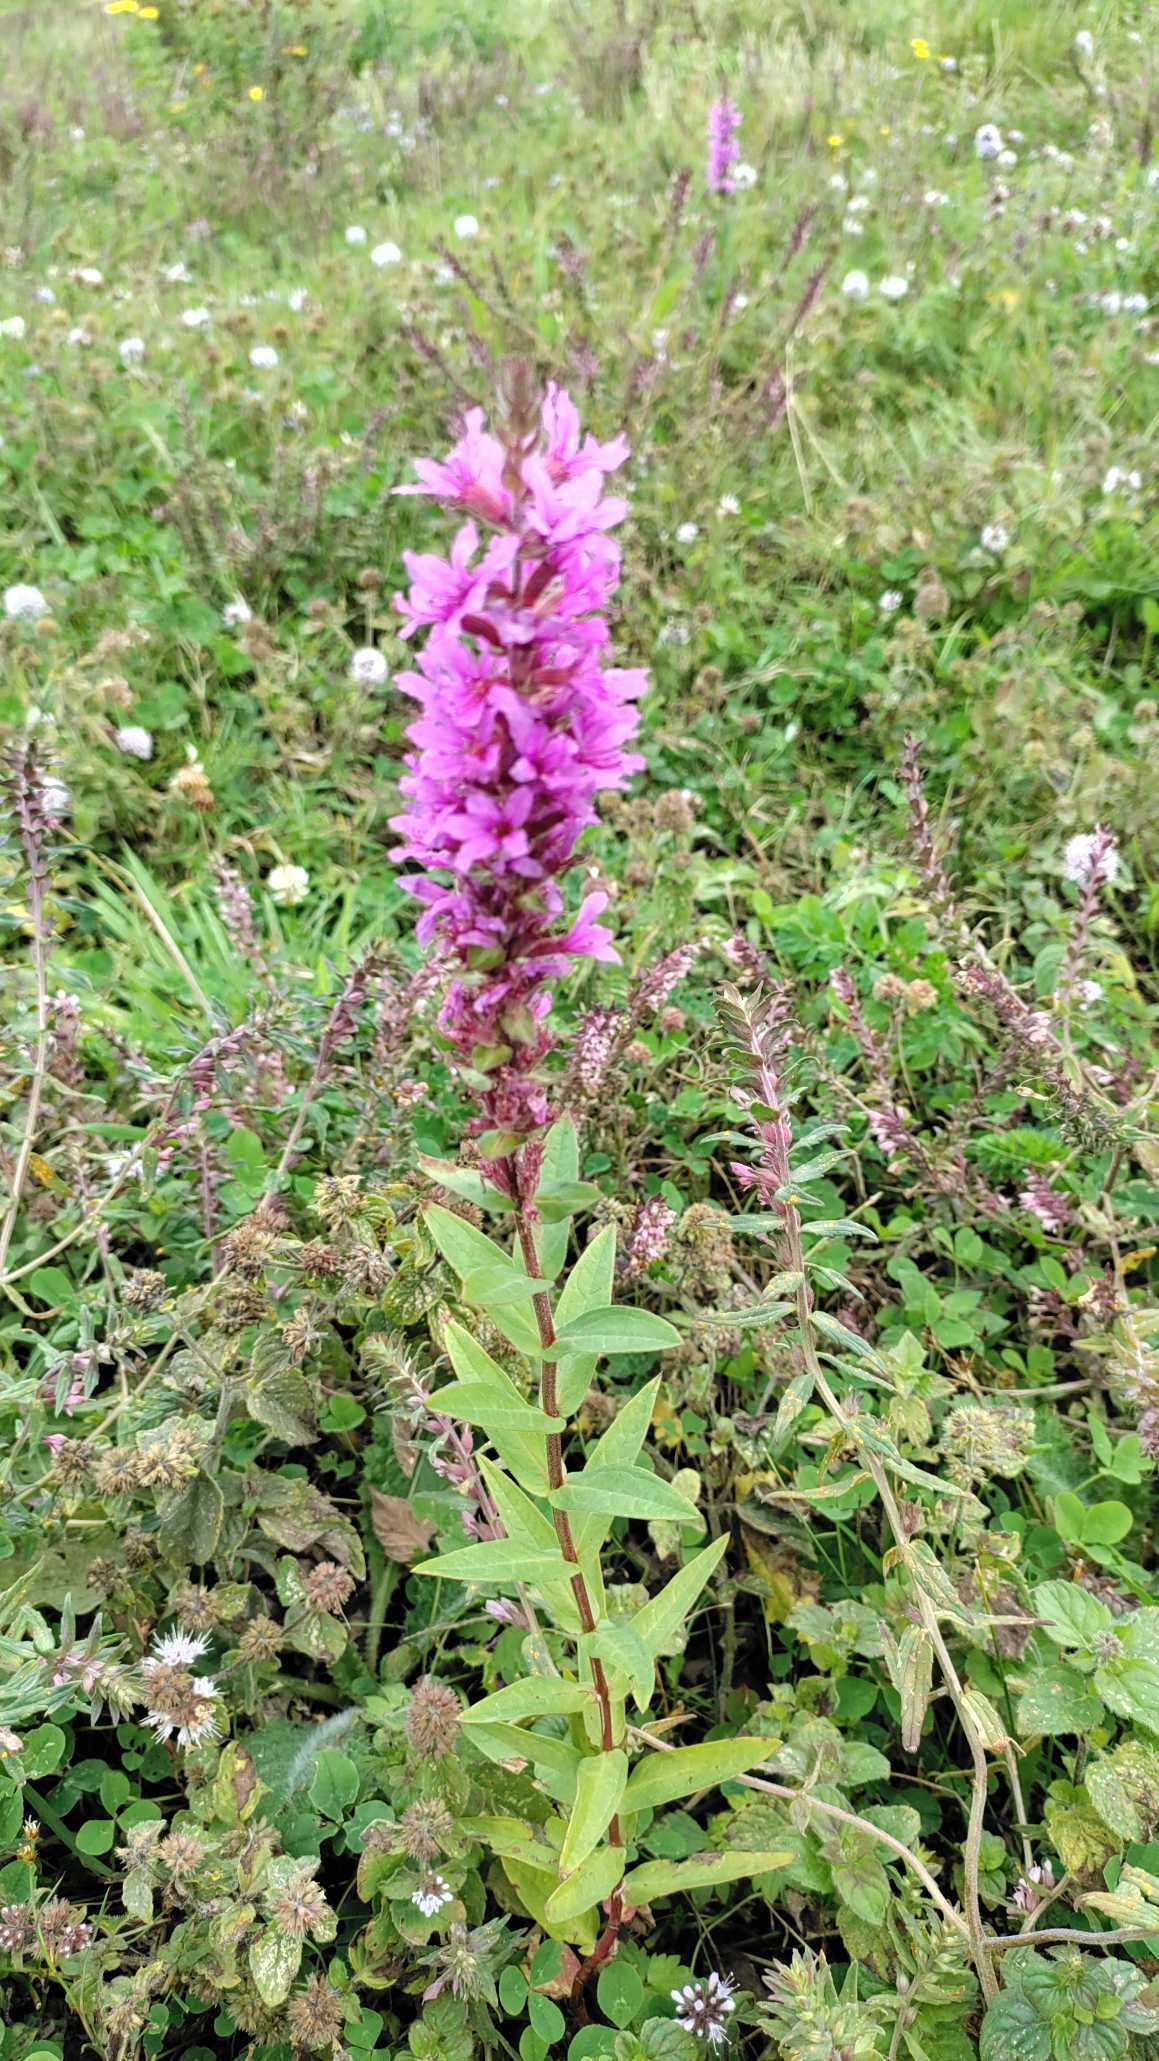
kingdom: Plantae
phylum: Tracheophyta
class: Magnoliopsida
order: Myrtales
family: Lythraceae
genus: Lythrum
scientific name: Lythrum salicaria
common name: Kattehale
